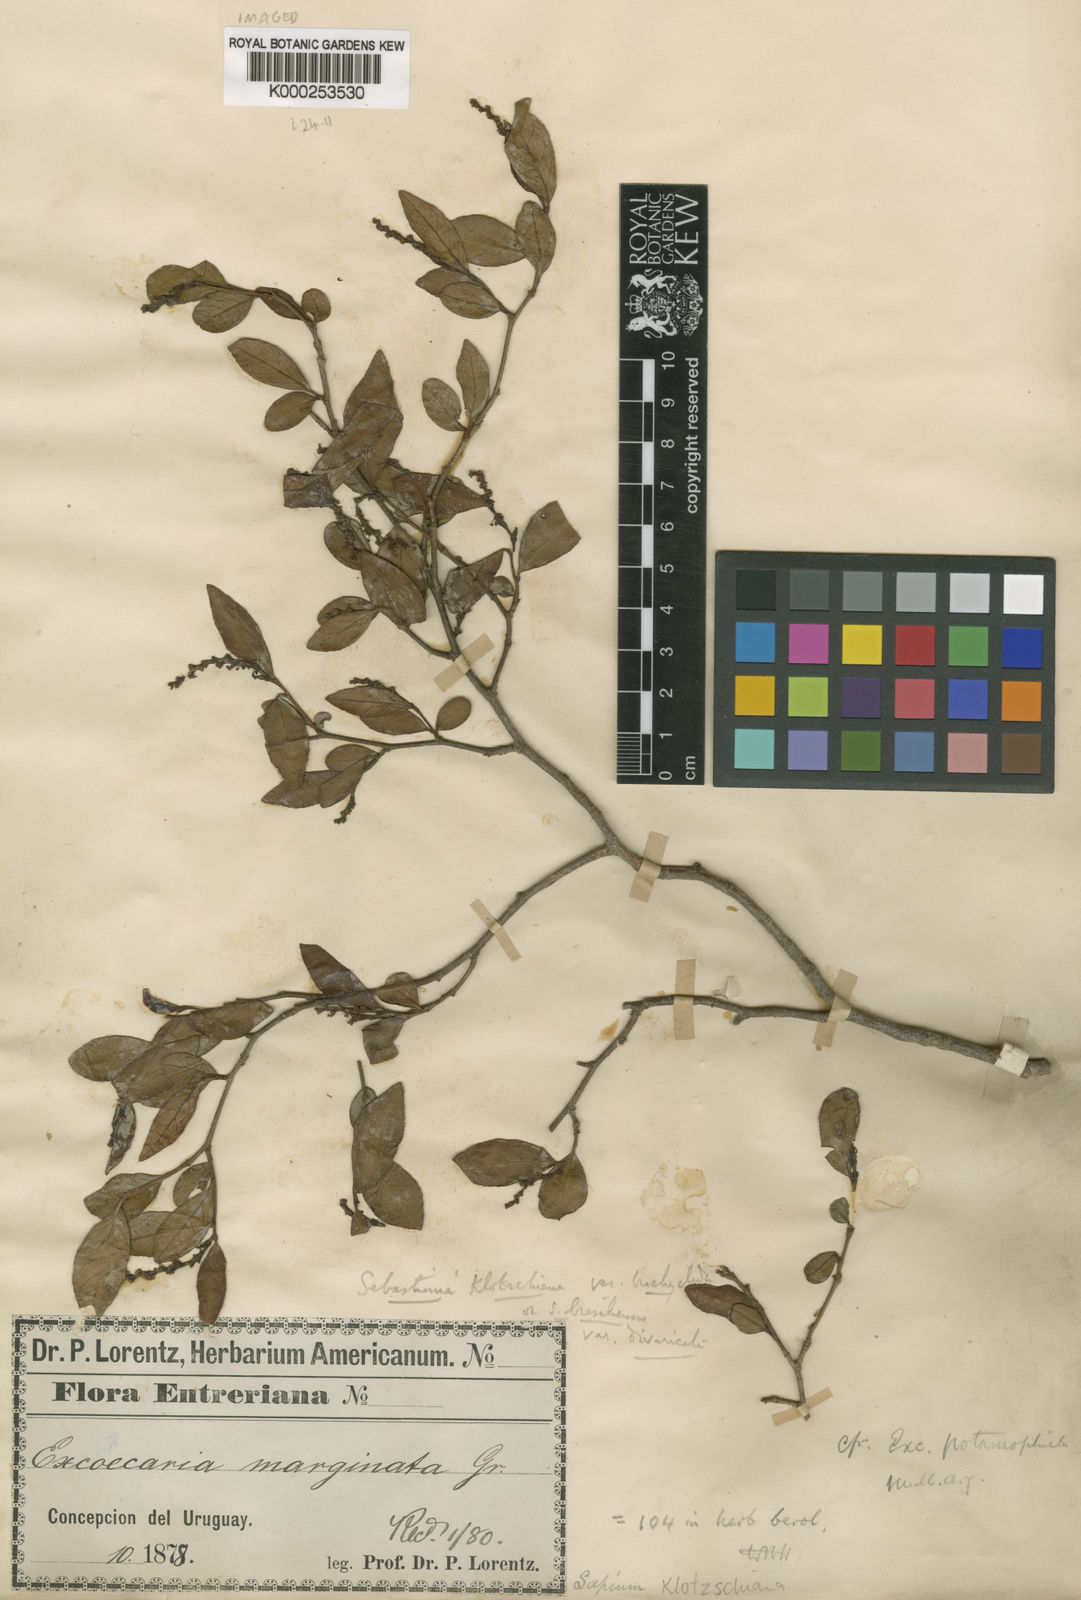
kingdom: Plantae
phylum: Tracheophyta
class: Magnoliopsida
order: Malpighiales
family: Euphorbiaceae
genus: Sebastiania
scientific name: Sebastiania
